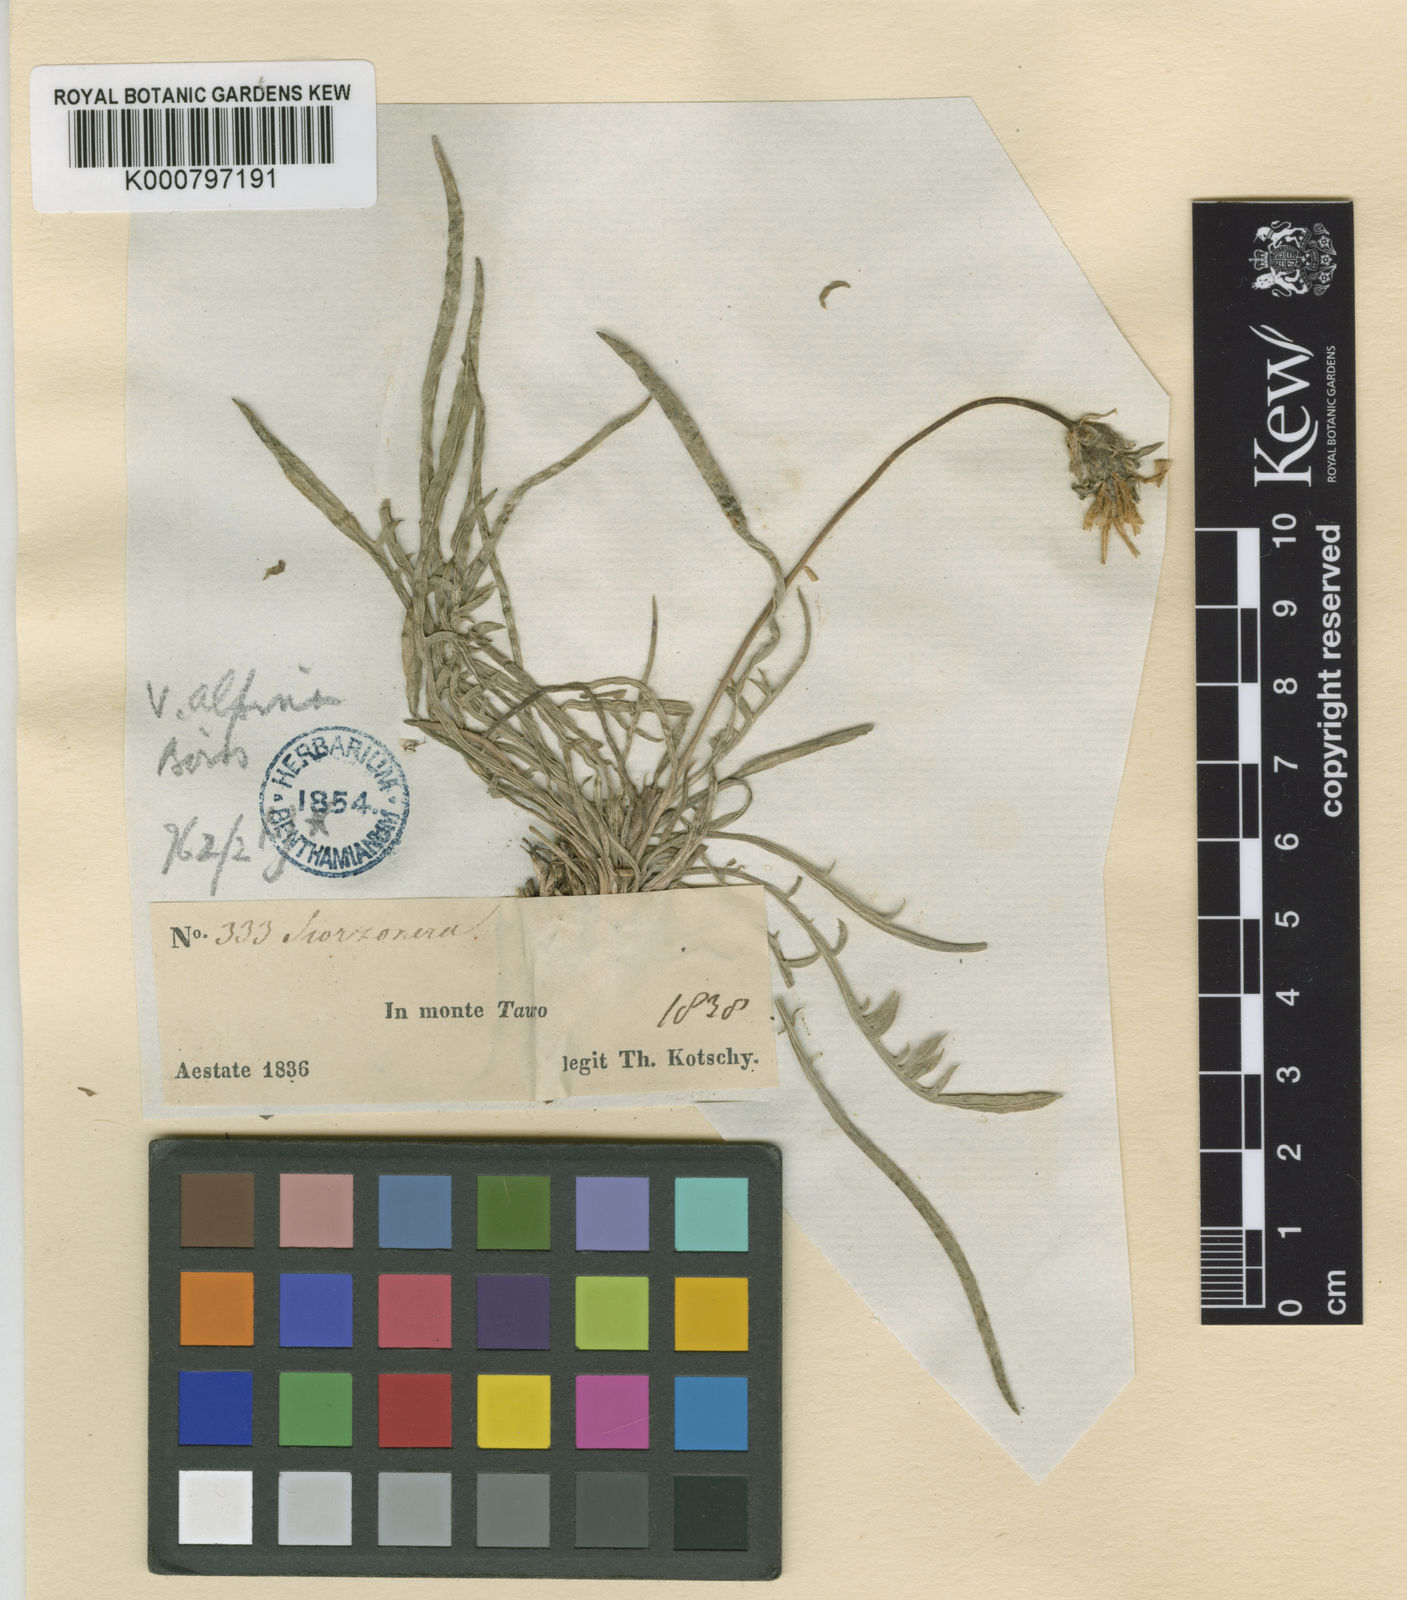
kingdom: Plantae
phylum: Tracheophyta
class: Magnoliopsida
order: Asterales
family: Asteraceae
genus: Scorzonera
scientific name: Scorzonera cana
